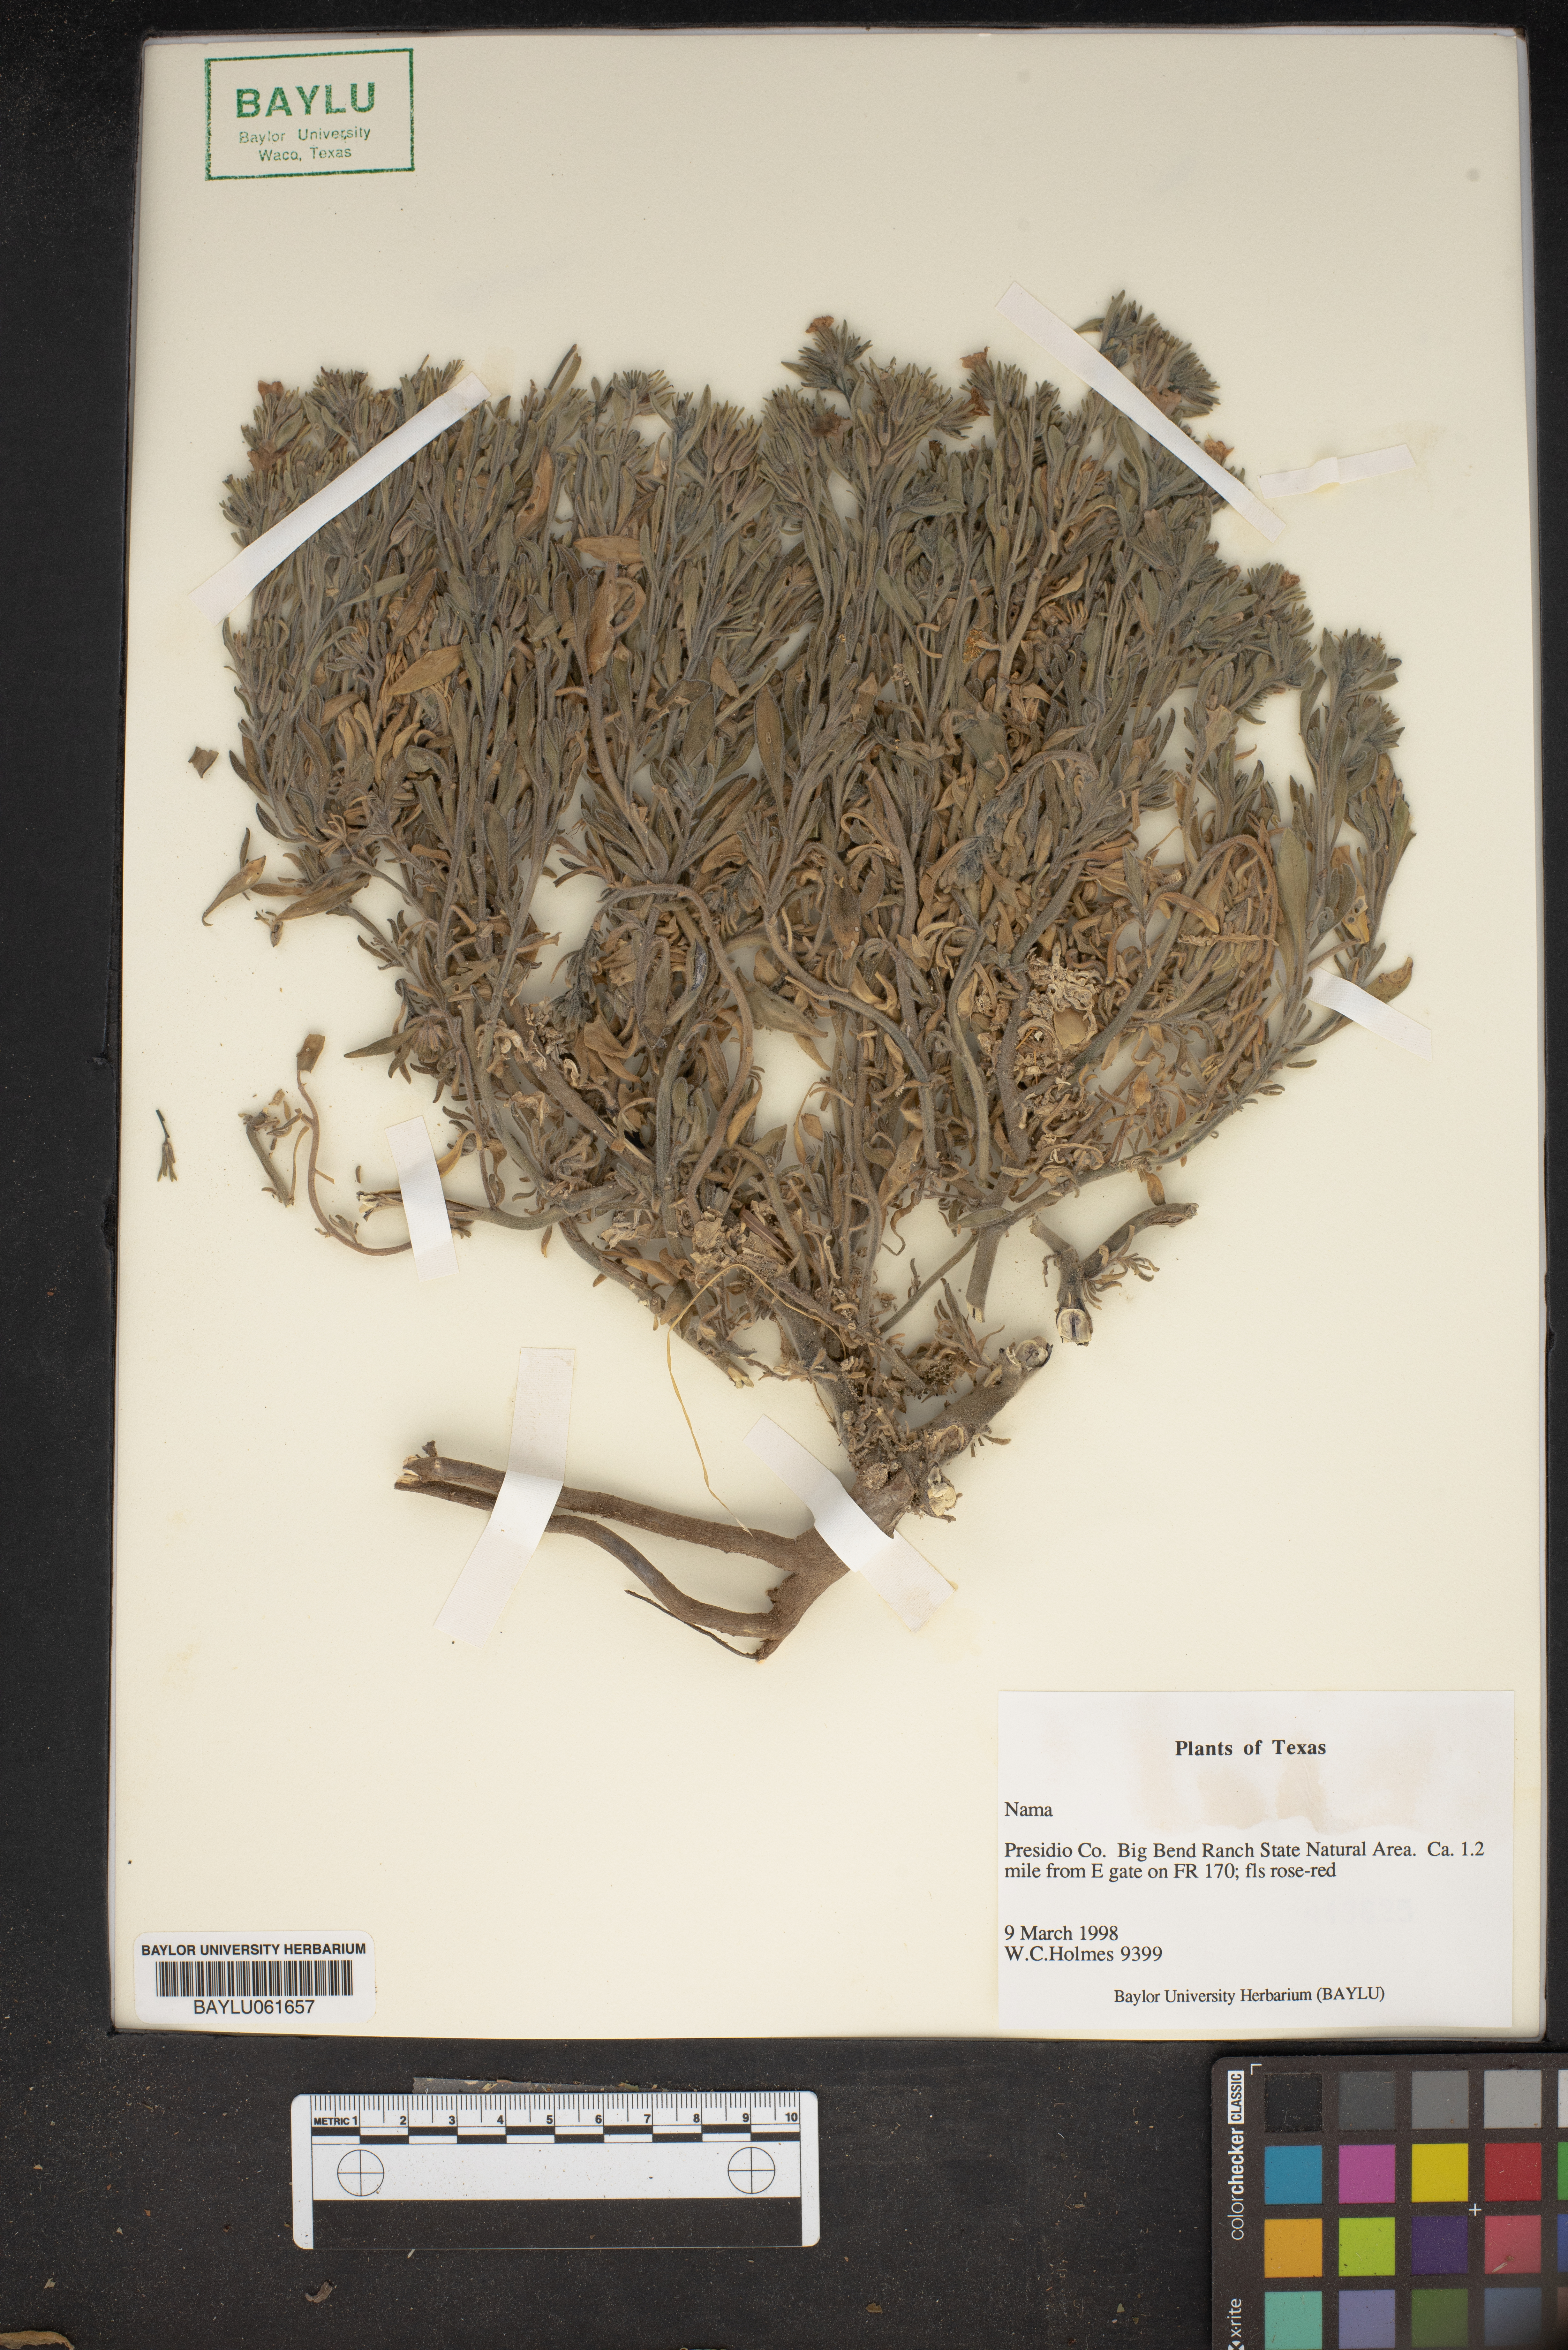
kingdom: Plantae
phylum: Tracheophyta
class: Magnoliopsida
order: Boraginales
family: Namaceae
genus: Nama
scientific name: Nama
